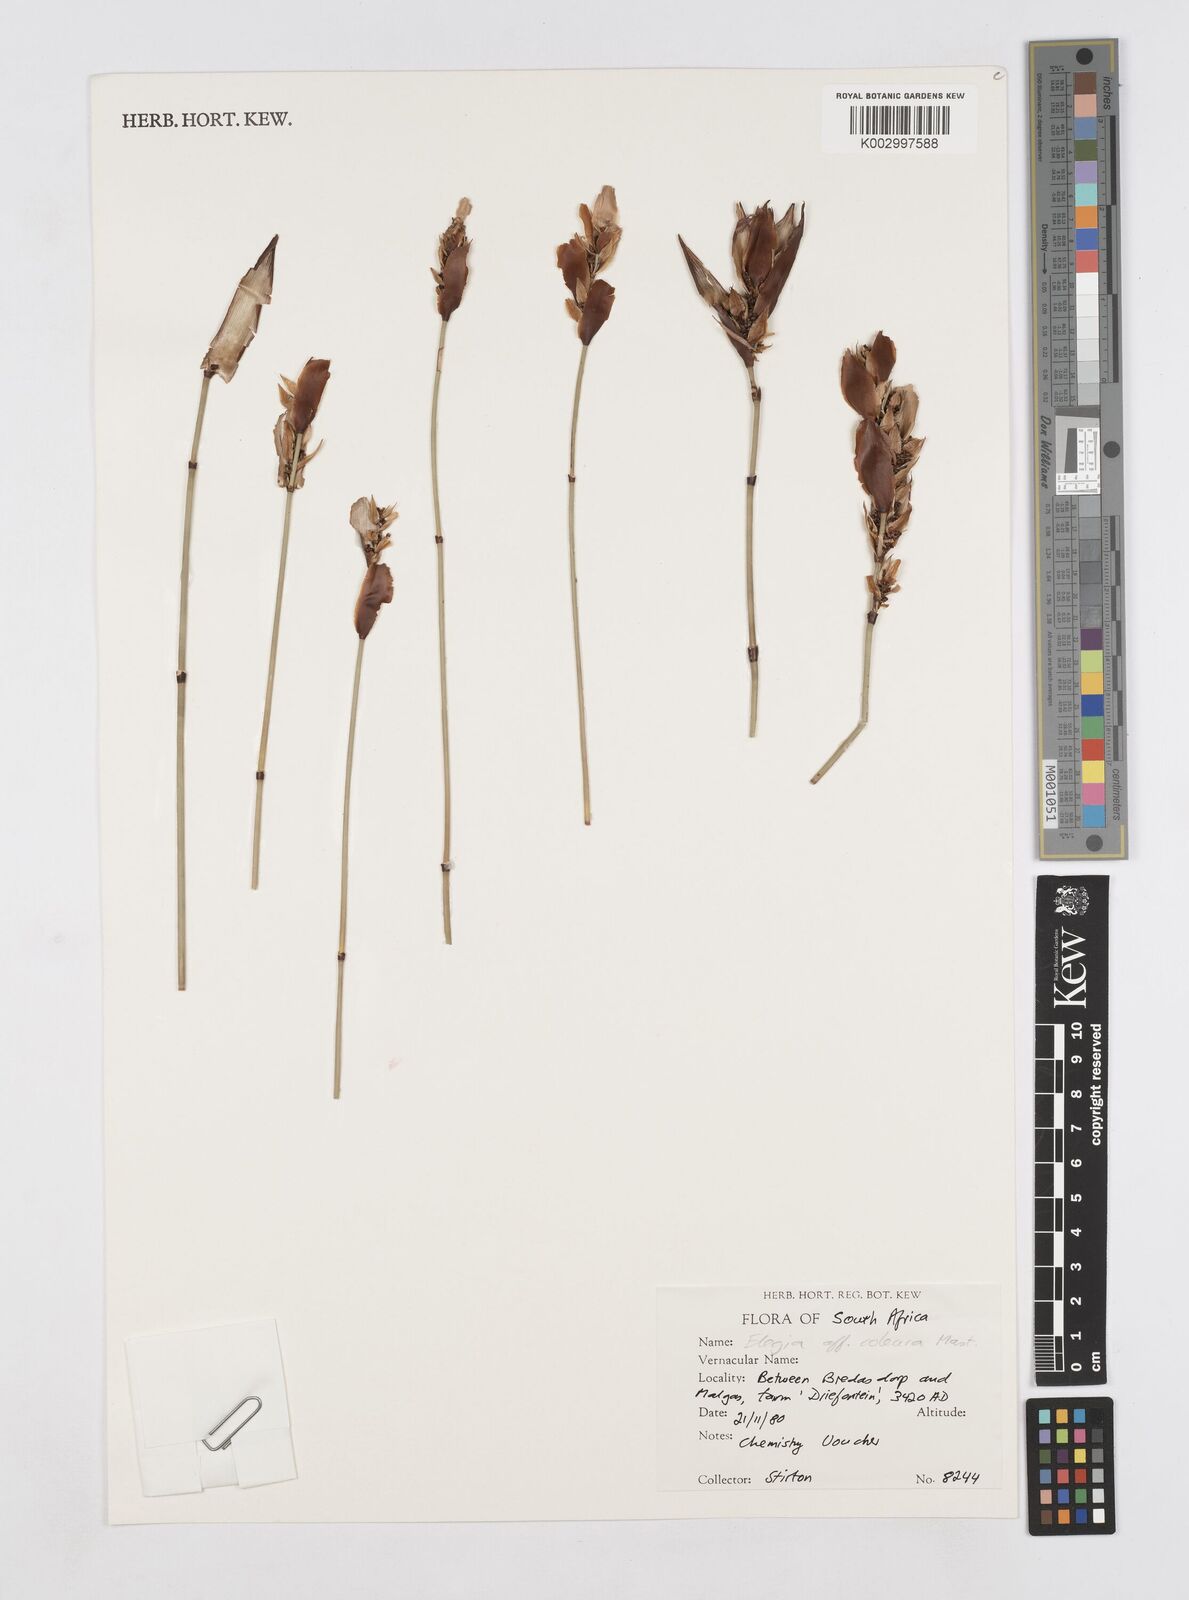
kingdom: Plantae
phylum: Tracheophyta
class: Liliopsida
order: Poales
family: Restionaceae
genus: Elegia
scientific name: Elegia coleura
